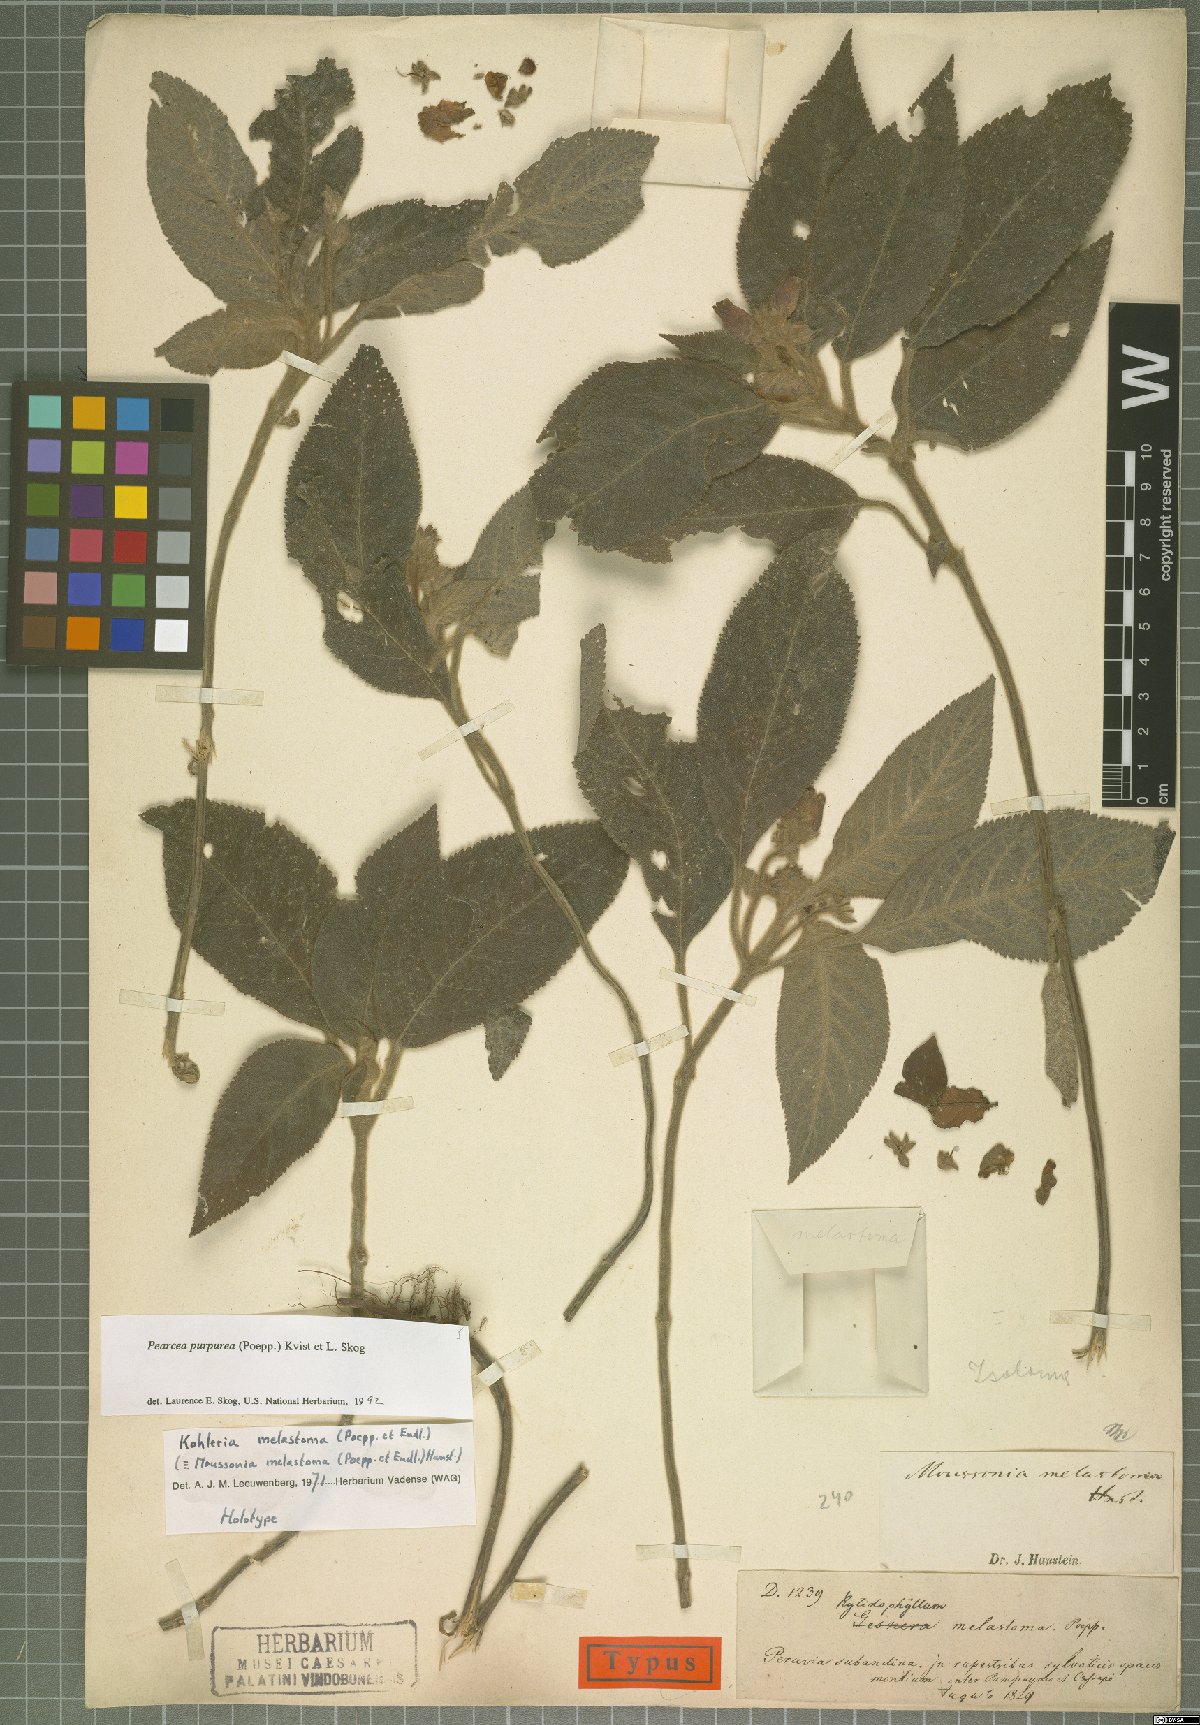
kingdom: Plantae
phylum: Tracheophyta
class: Magnoliopsida
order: Lamiales
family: Gesneriaceae
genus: Pearcea
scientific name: Pearcea purpurea
